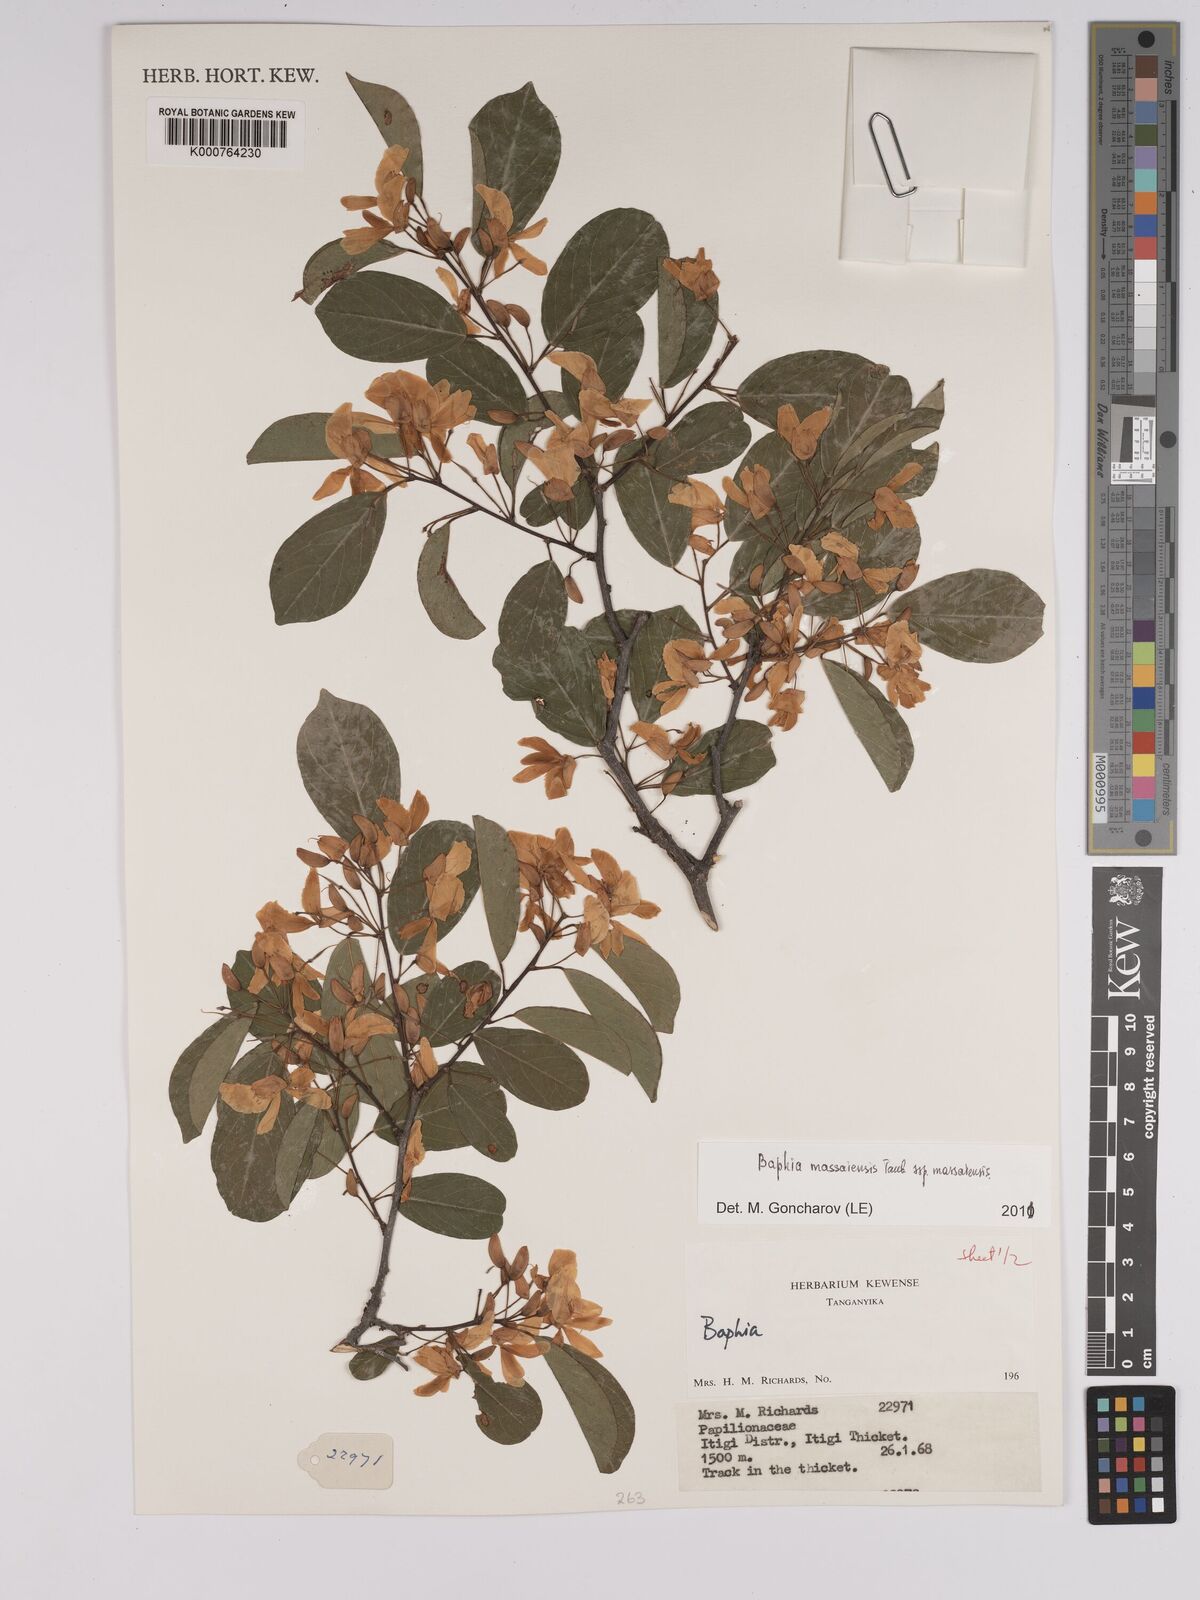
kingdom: Plantae
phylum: Tracheophyta
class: Magnoliopsida
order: Fabales
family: Fabaceae
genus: Baphia
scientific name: Baphia massaiensis
